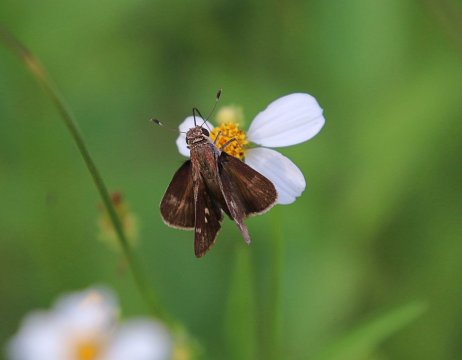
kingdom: Animalia
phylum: Arthropoda
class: Insecta
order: Lepidoptera
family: Hesperiidae
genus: Pompeius
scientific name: Pompeius pompeius
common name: Pompeius Skipper
